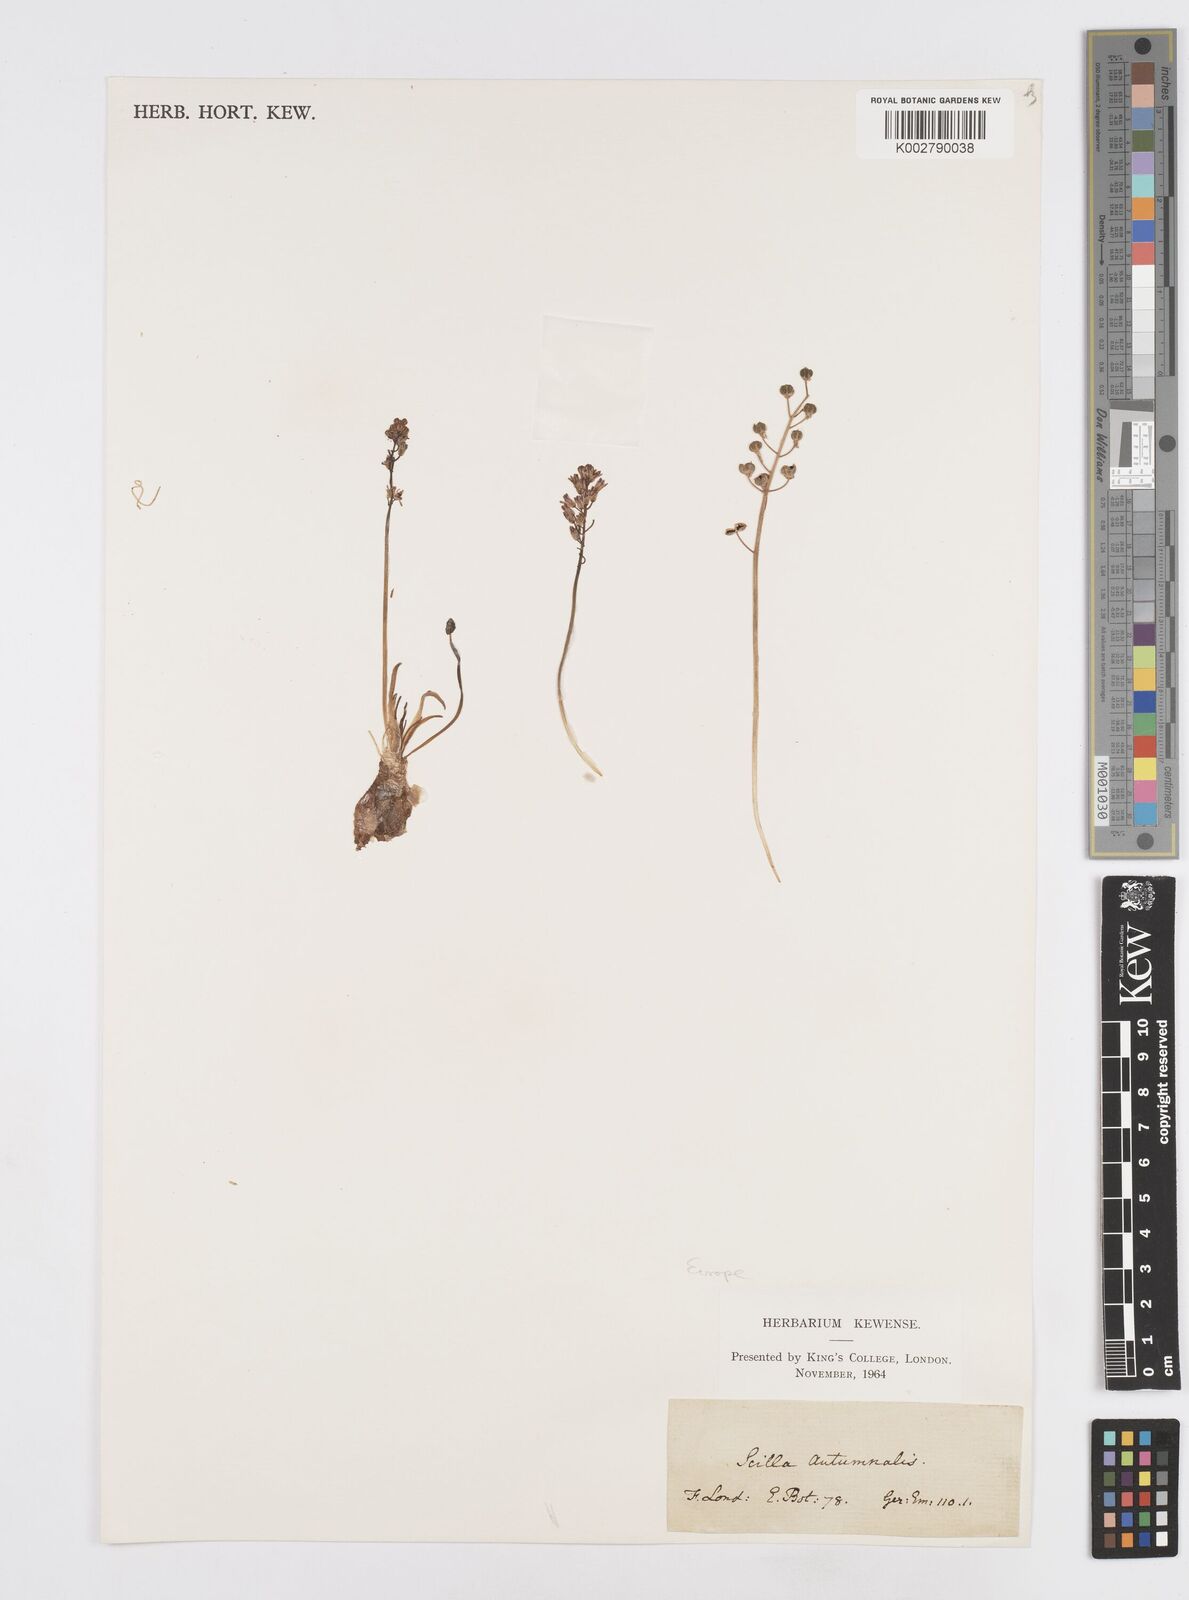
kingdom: Plantae
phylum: Tracheophyta
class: Liliopsida
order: Asparagales
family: Asparagaceae
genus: Prospero
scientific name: Prospero autumnale
